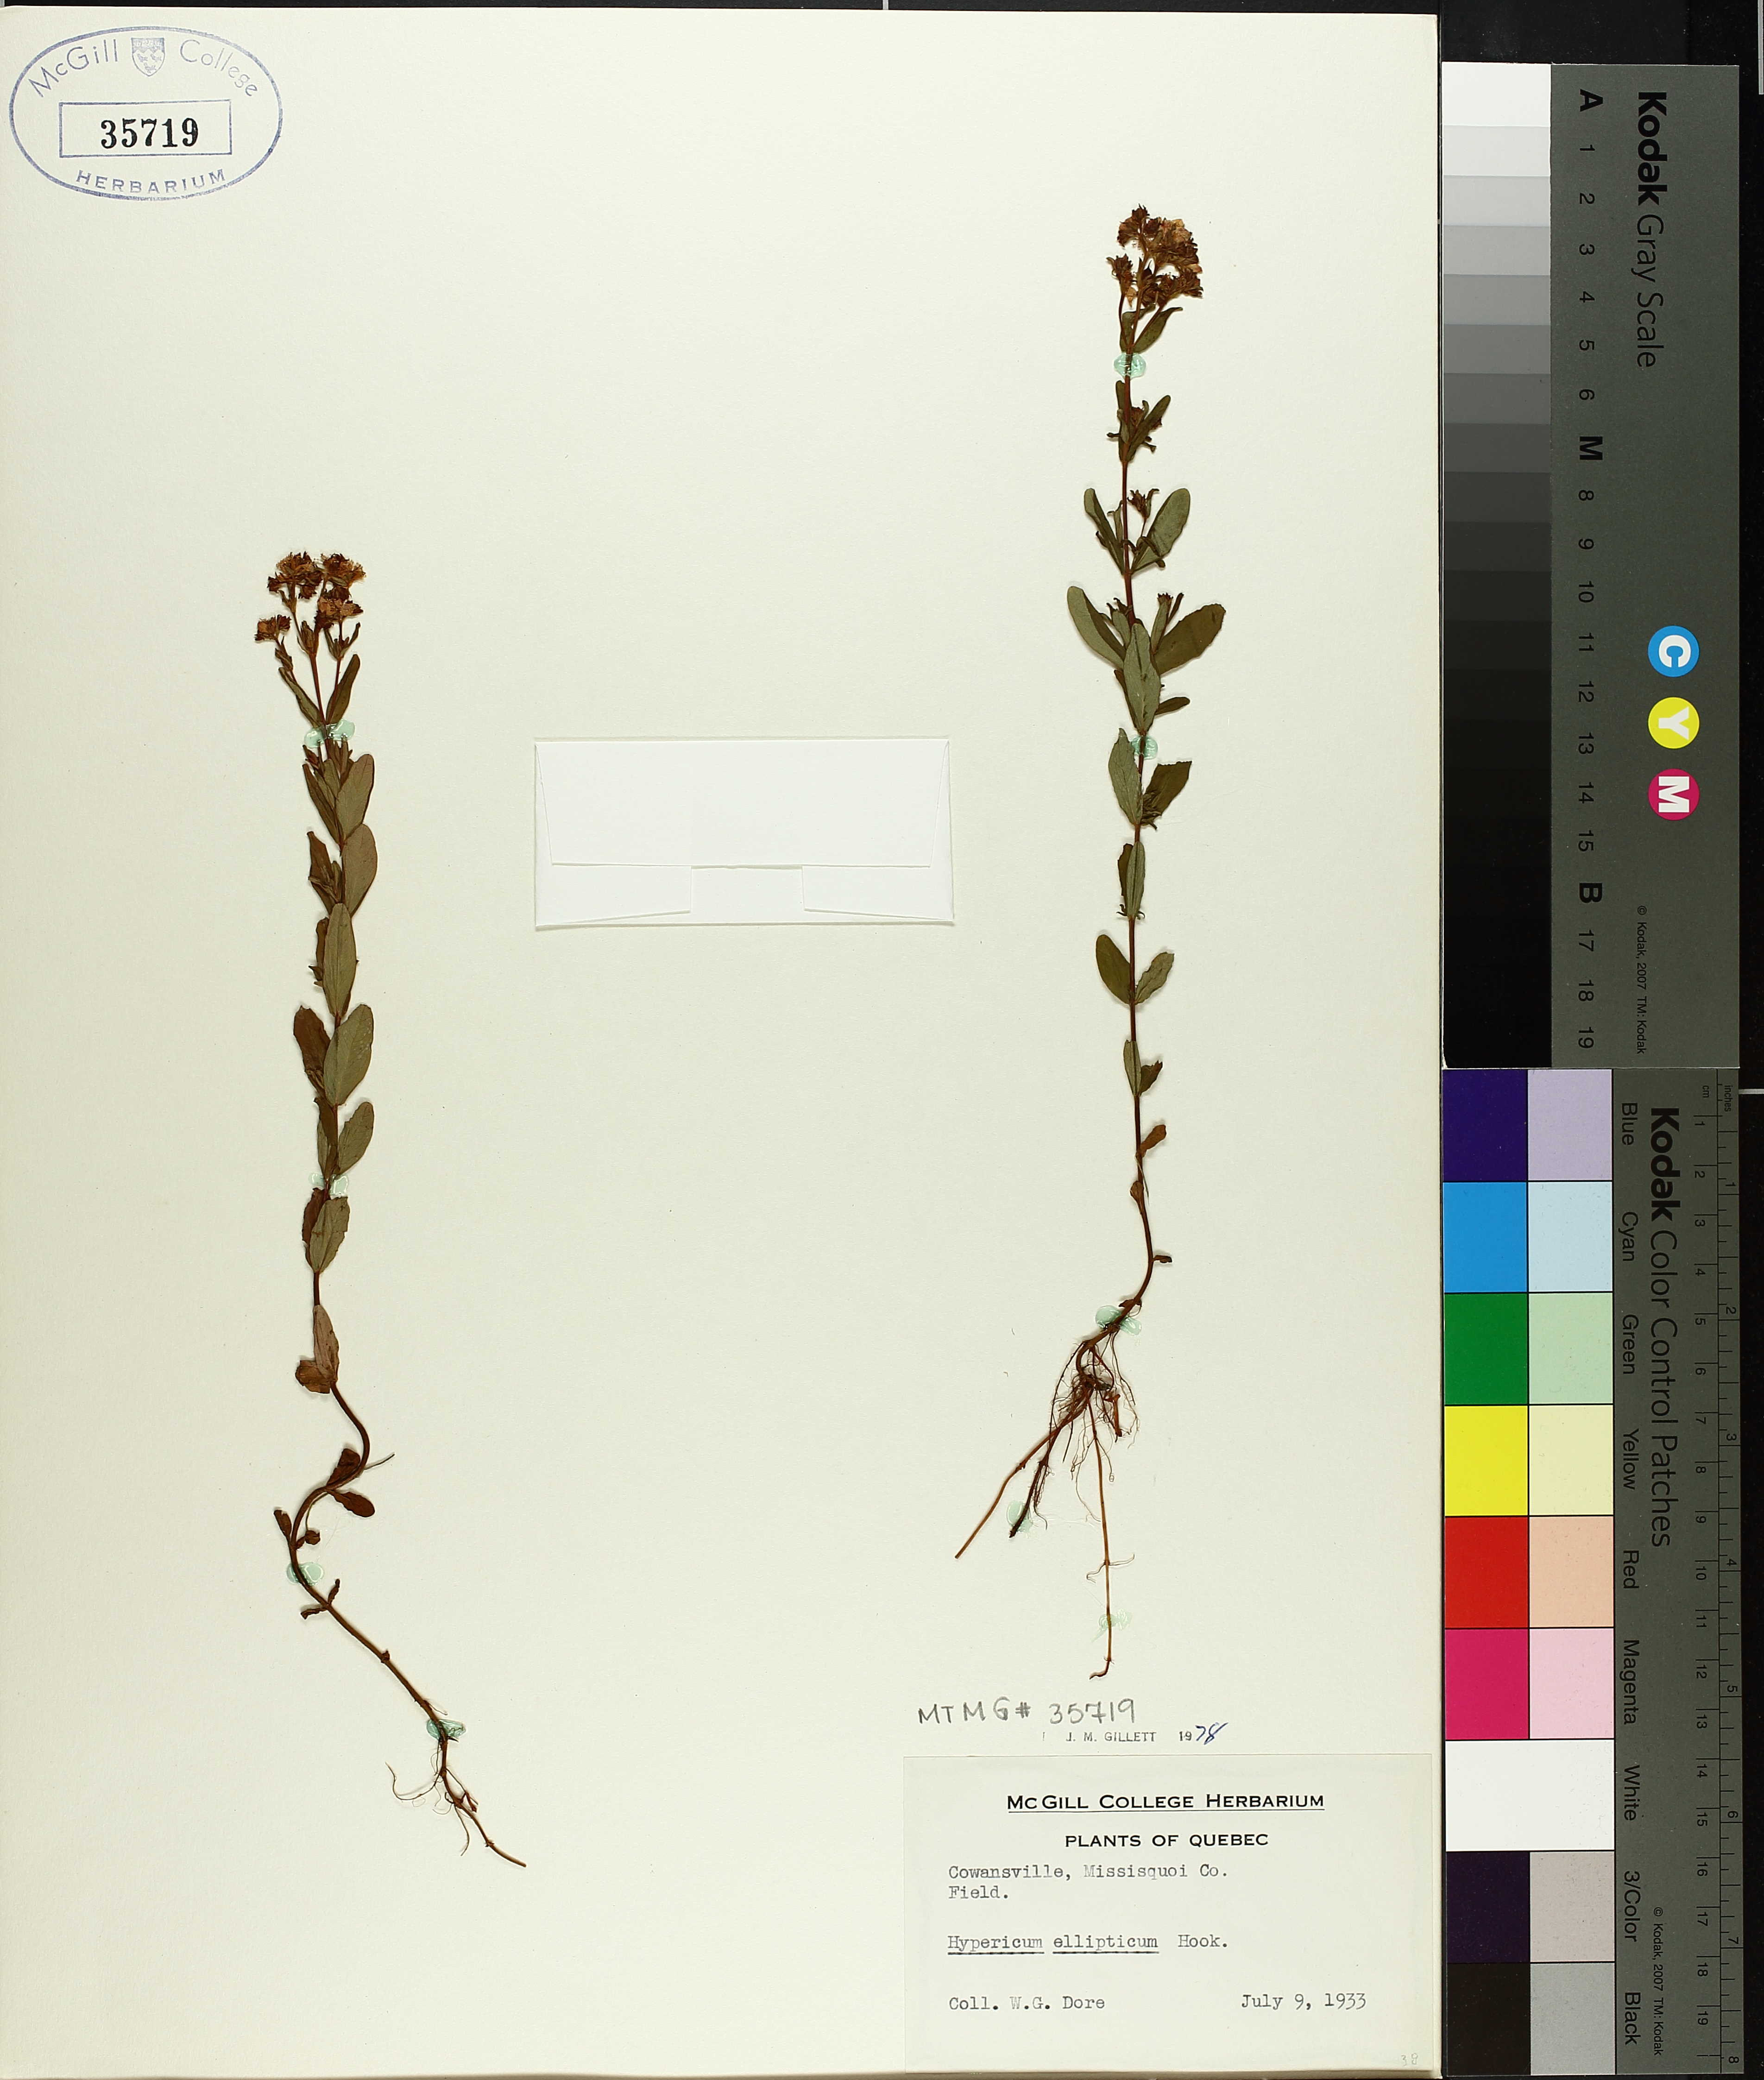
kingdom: Plantae
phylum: Tracheophyta
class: Magnoliopsida
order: Malpighiales
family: Hypericaceae
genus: Hypericum
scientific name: Hypericum ellipticum
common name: Elliptic st. john's-wort
